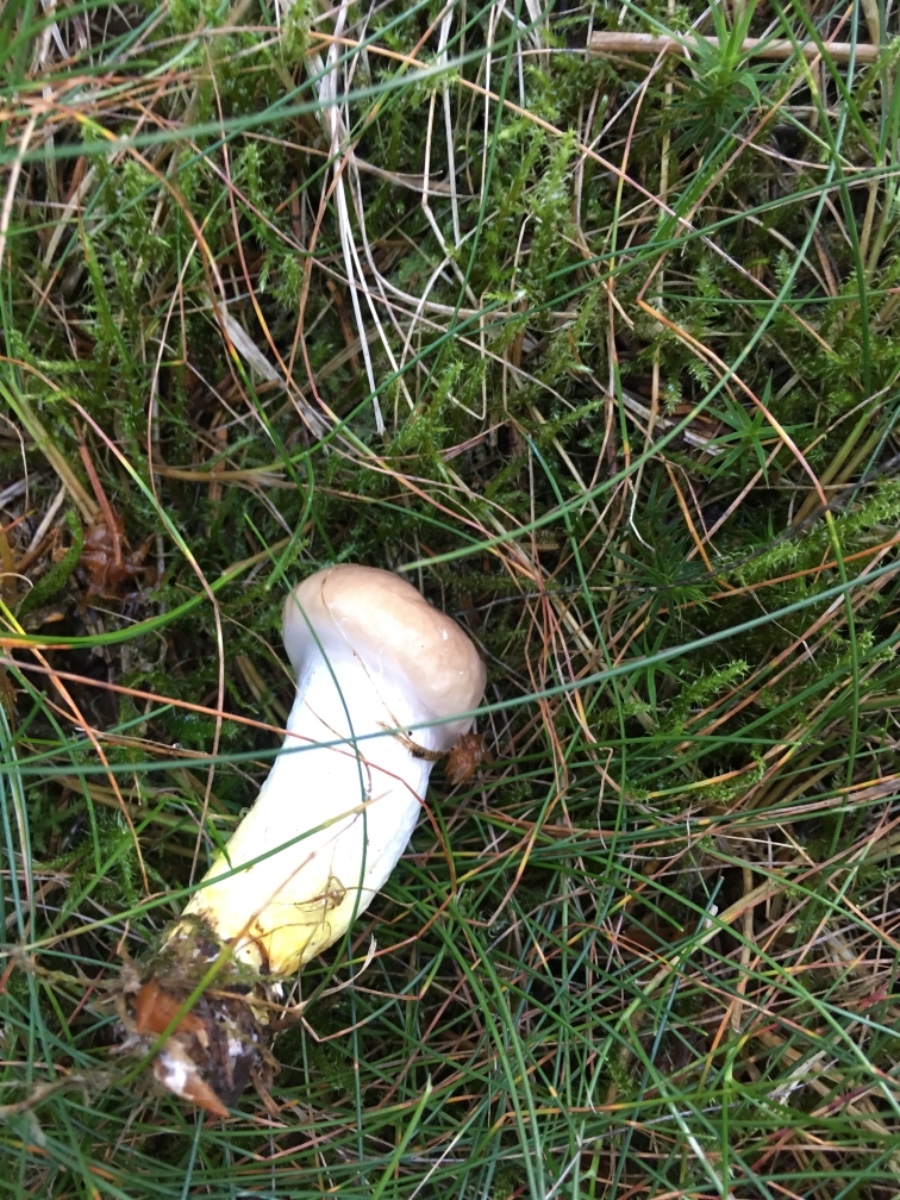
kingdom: Fungi
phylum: Basidiomycota
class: Agaricomycetes
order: Boletales
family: Gomphidiaceae
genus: Gomphidius
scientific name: Gomphidius glutinosus
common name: grå slimslør
